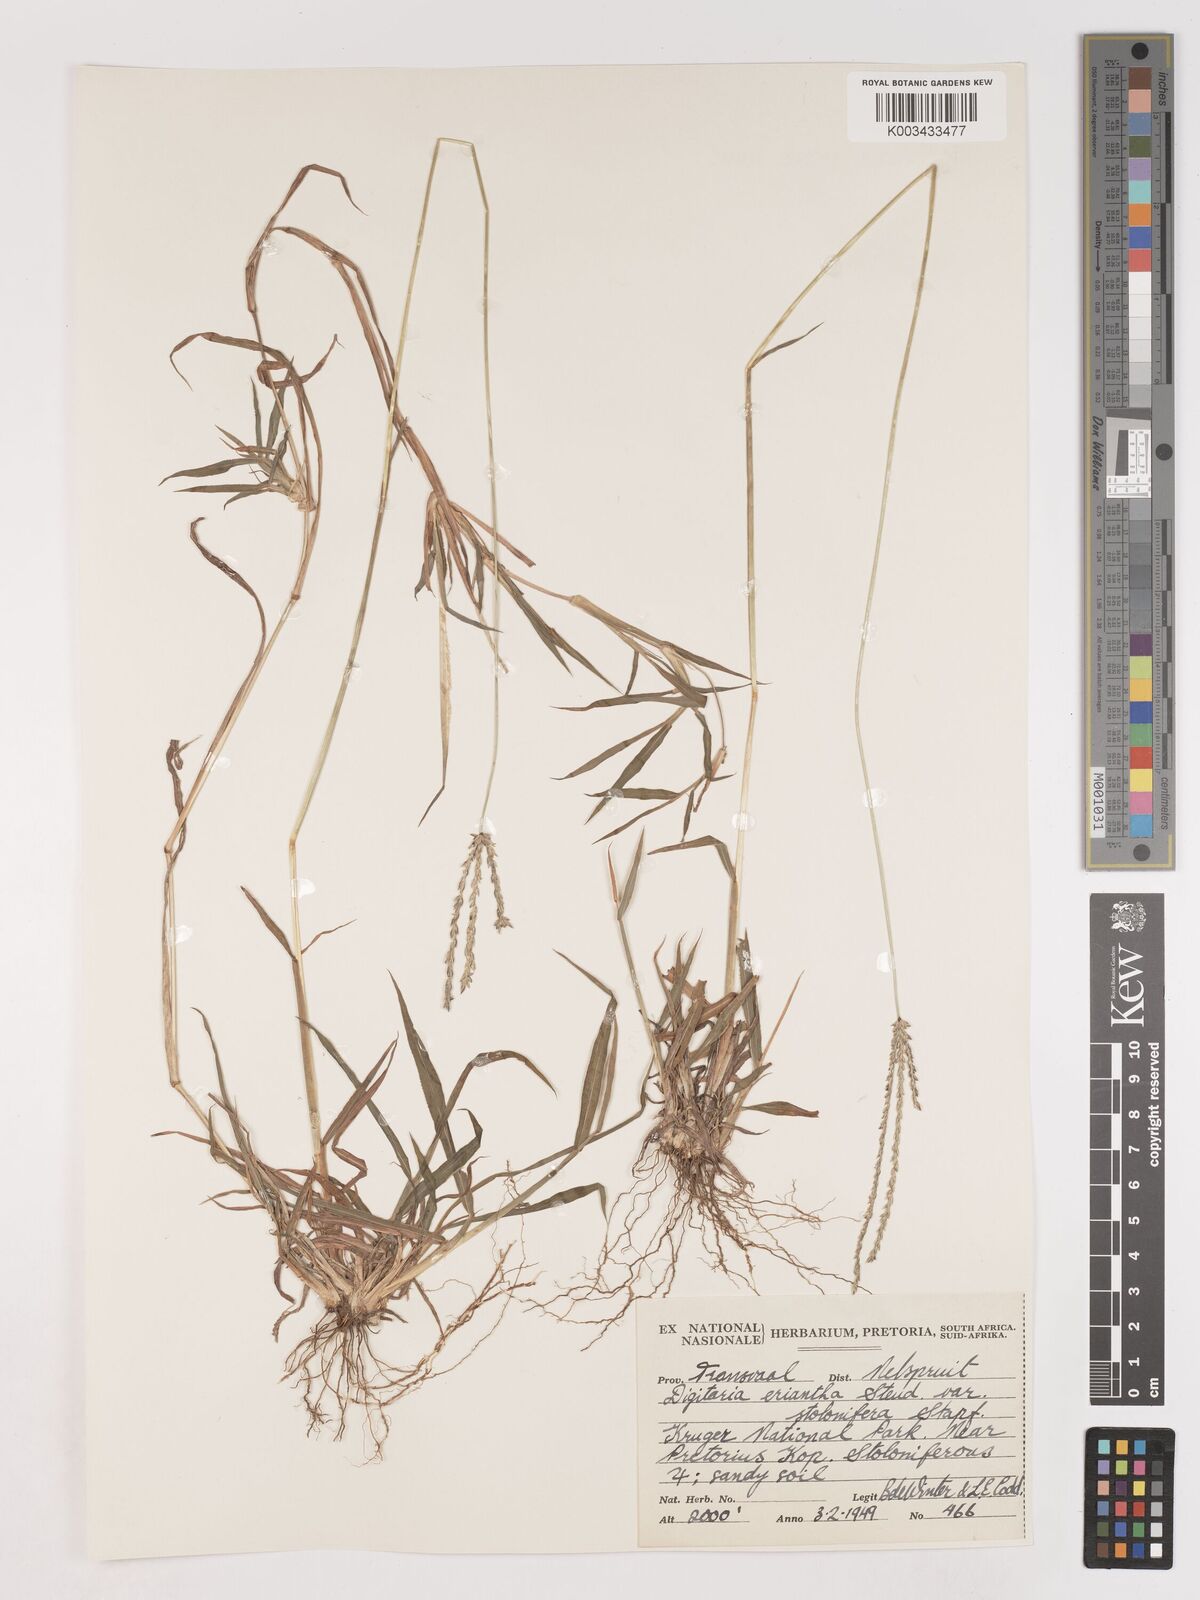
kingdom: Plantae
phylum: Tracheophyta
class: Liliopsida
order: Poales
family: Poaceae
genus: Digitaria
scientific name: Digitaria eriantha
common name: Digitgrass
